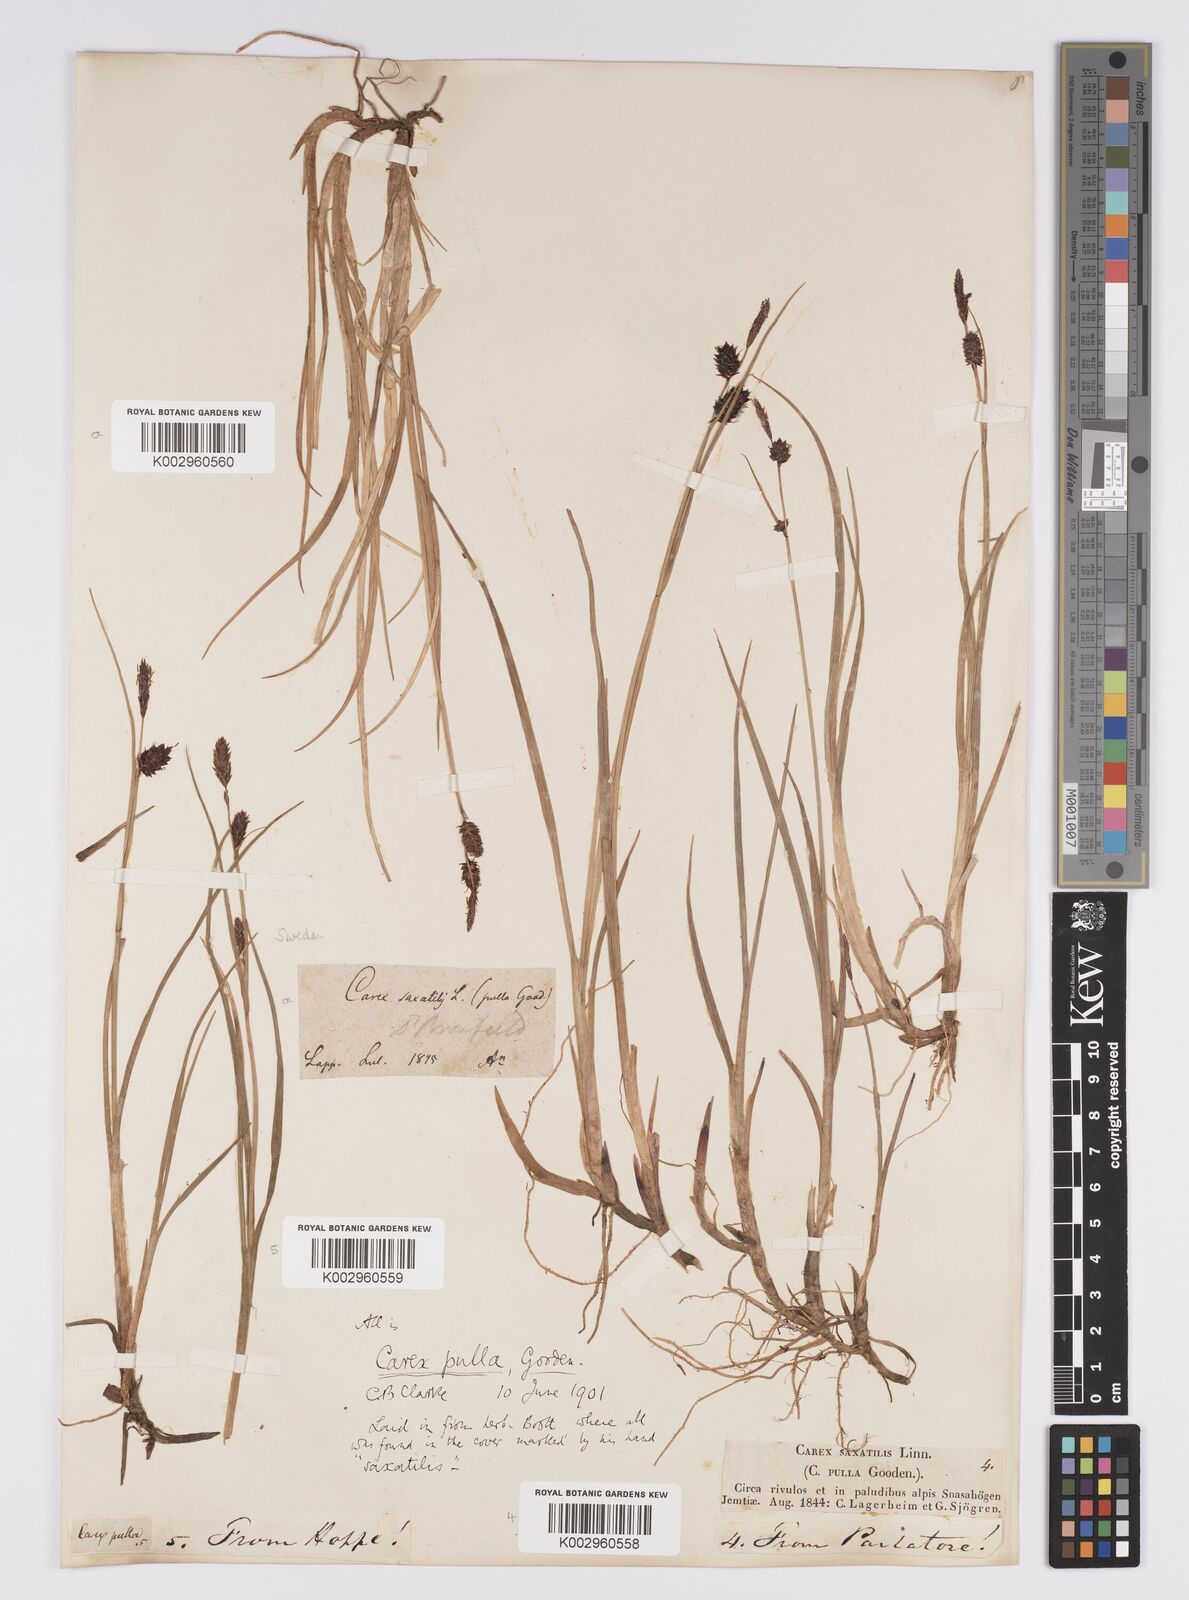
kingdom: Plantae
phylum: Tracheophyta
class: Liliopsida
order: Poales
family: Cyperaceae
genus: Carex
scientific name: Carex saxatilis
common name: Russet sedge
